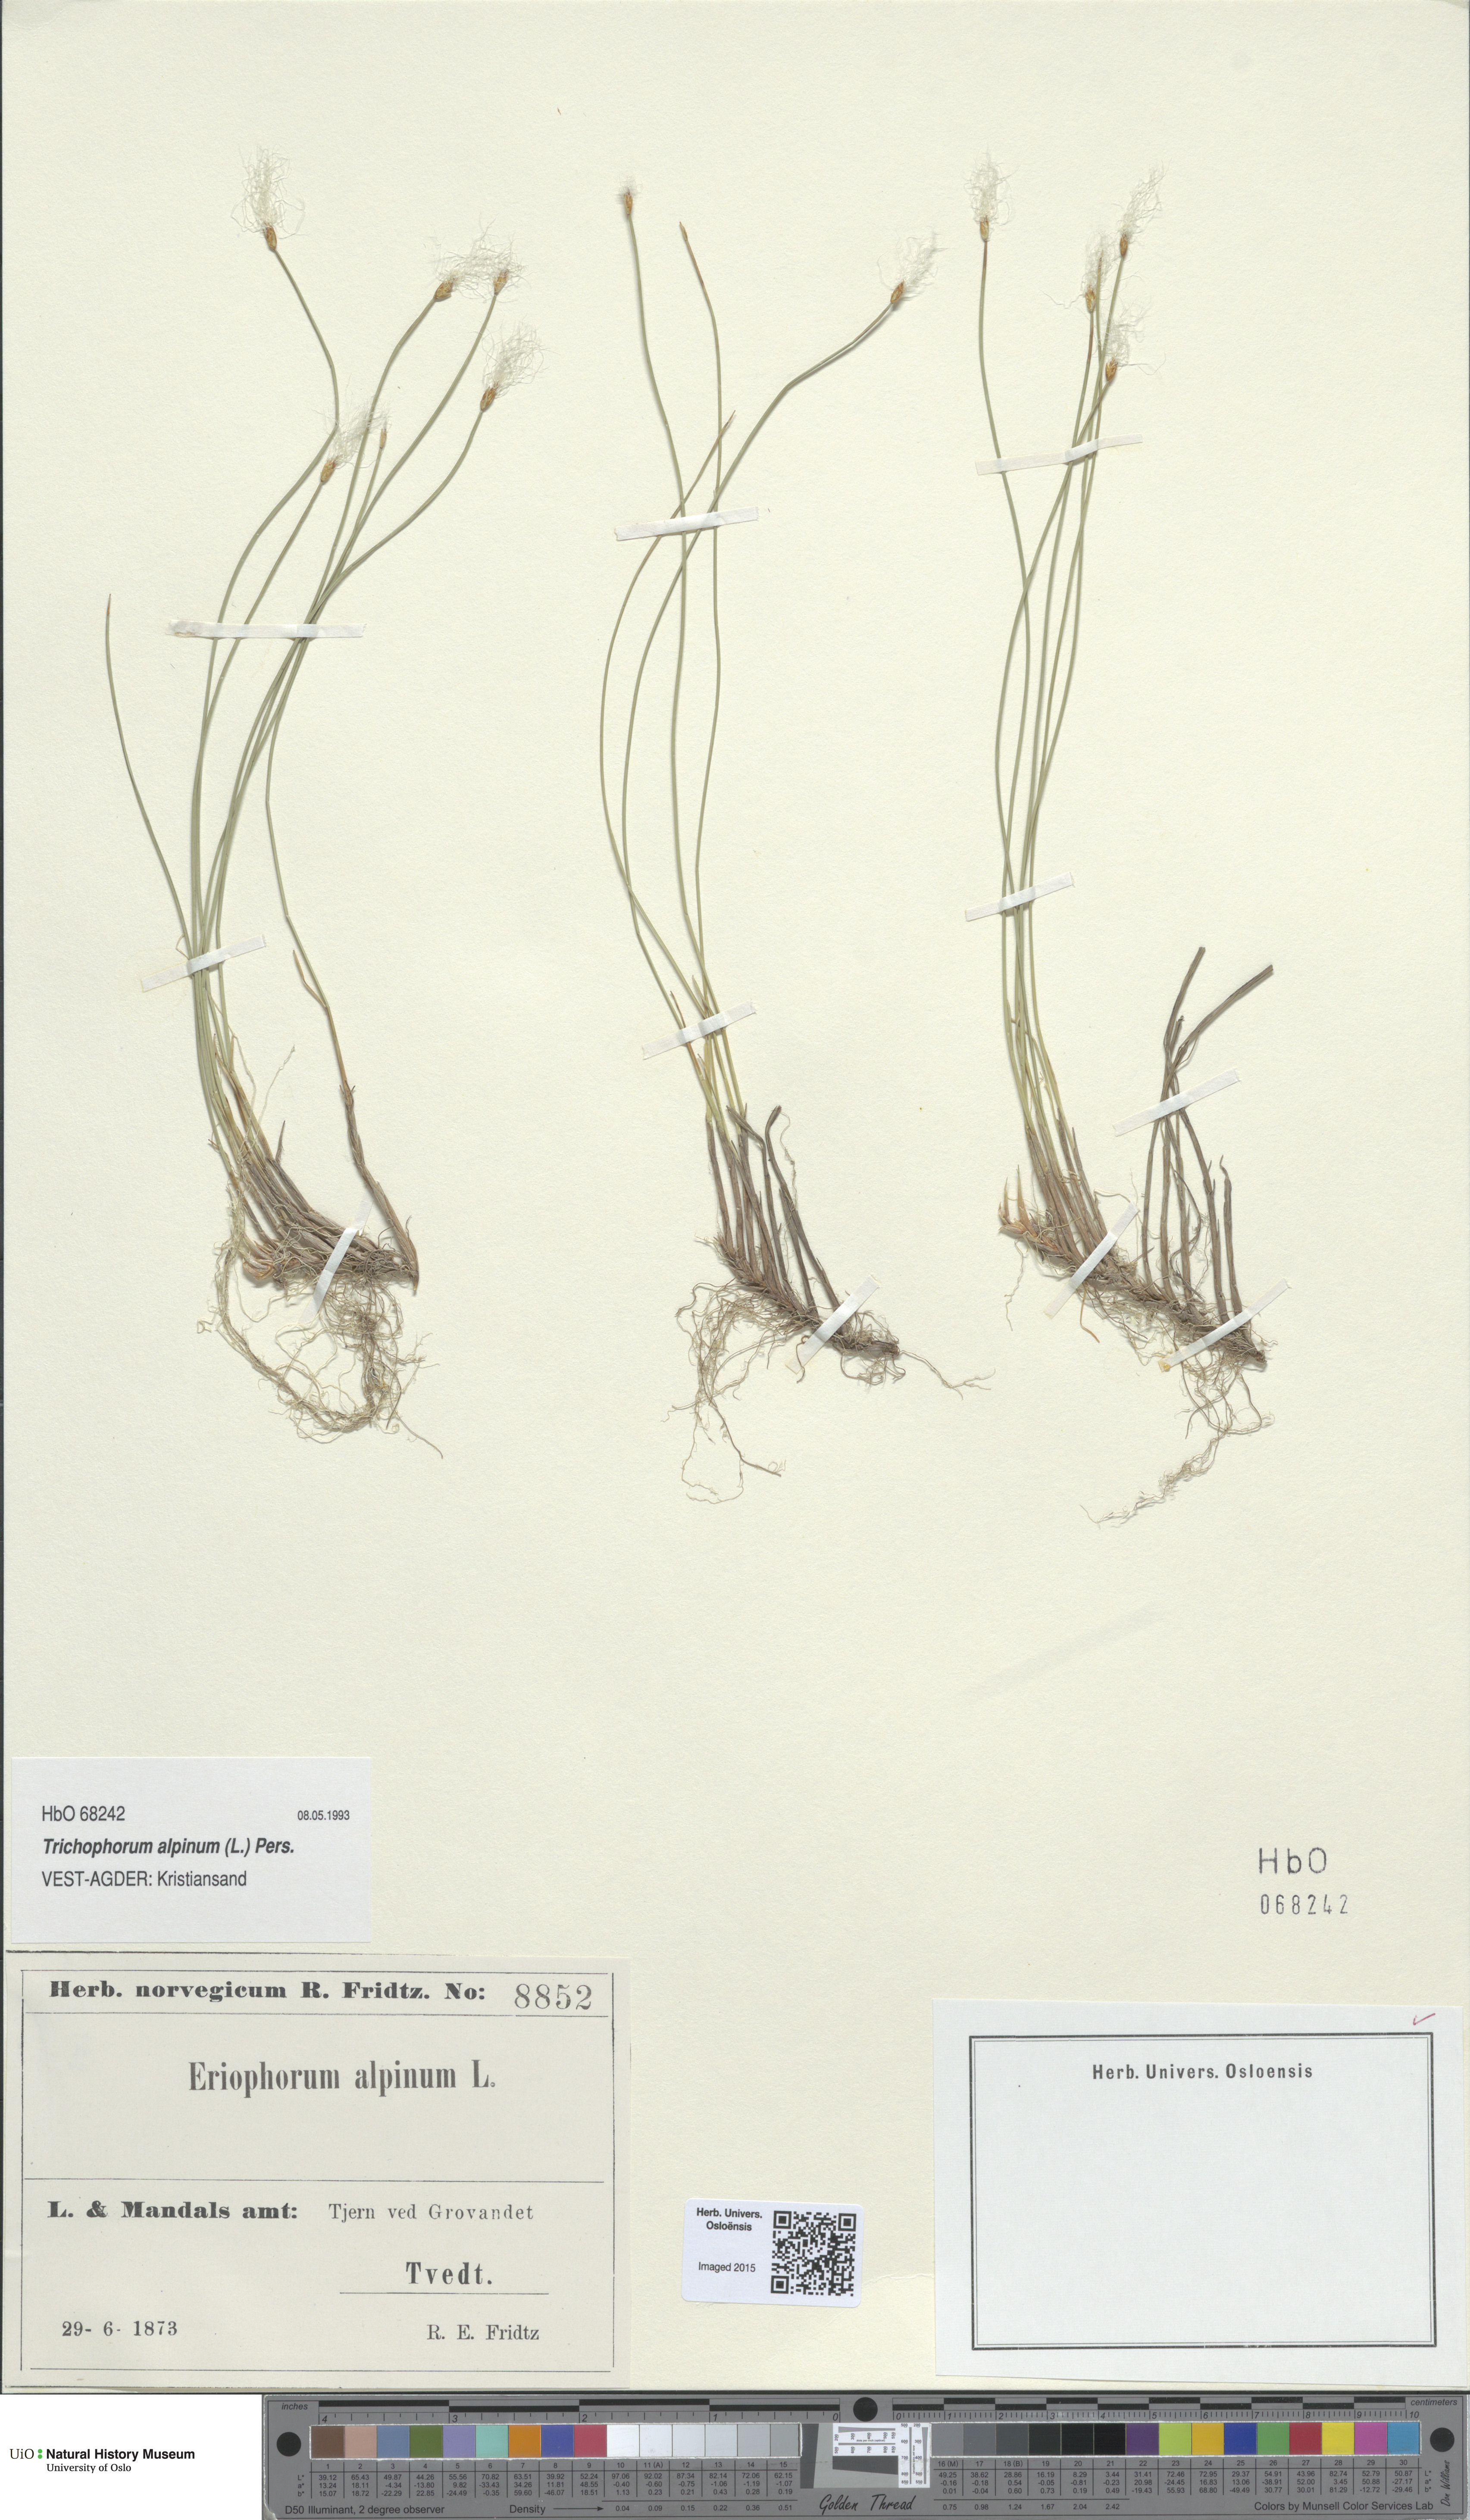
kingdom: Plantae
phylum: Tracheophyta
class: Liliopsida
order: Poales
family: Cyperaceae
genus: Trichophorum
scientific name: Trichophorum alpinum
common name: Alpine bulrush
